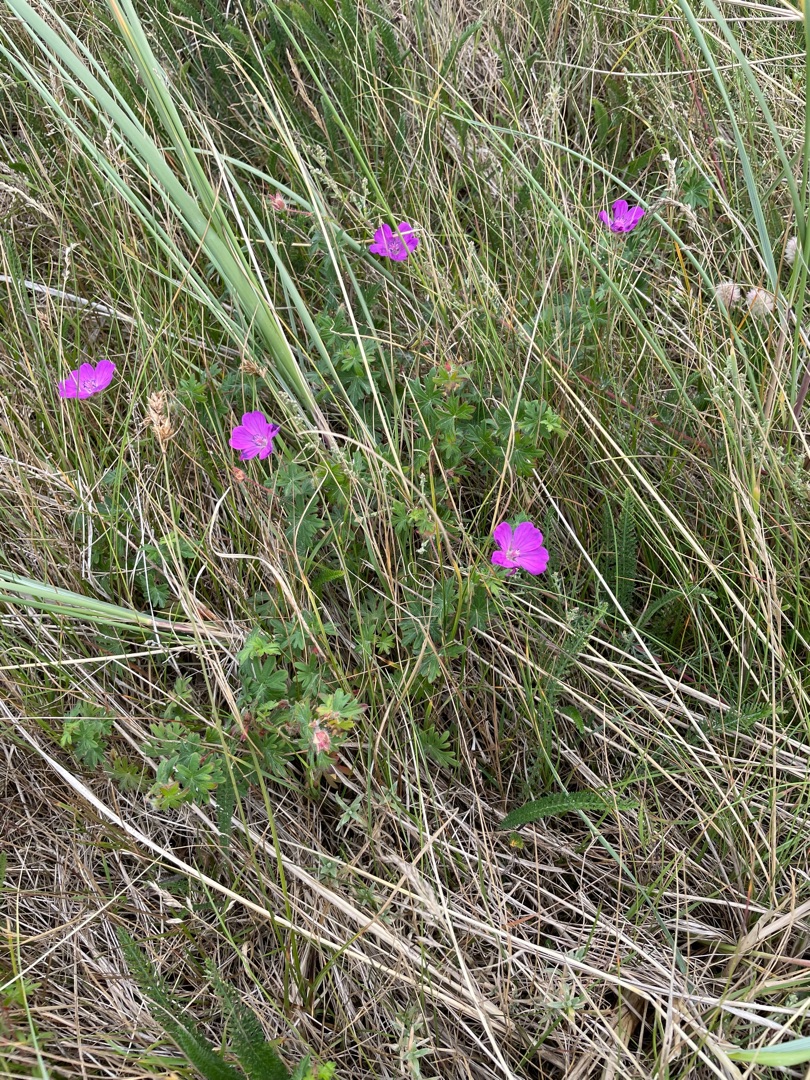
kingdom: Plantae
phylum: Tracheophyta
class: Magnoliopsida
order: Geraniales
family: Geraniaceae
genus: Geranium
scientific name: Geranium sanguineum
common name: Blodrød storkenæb
